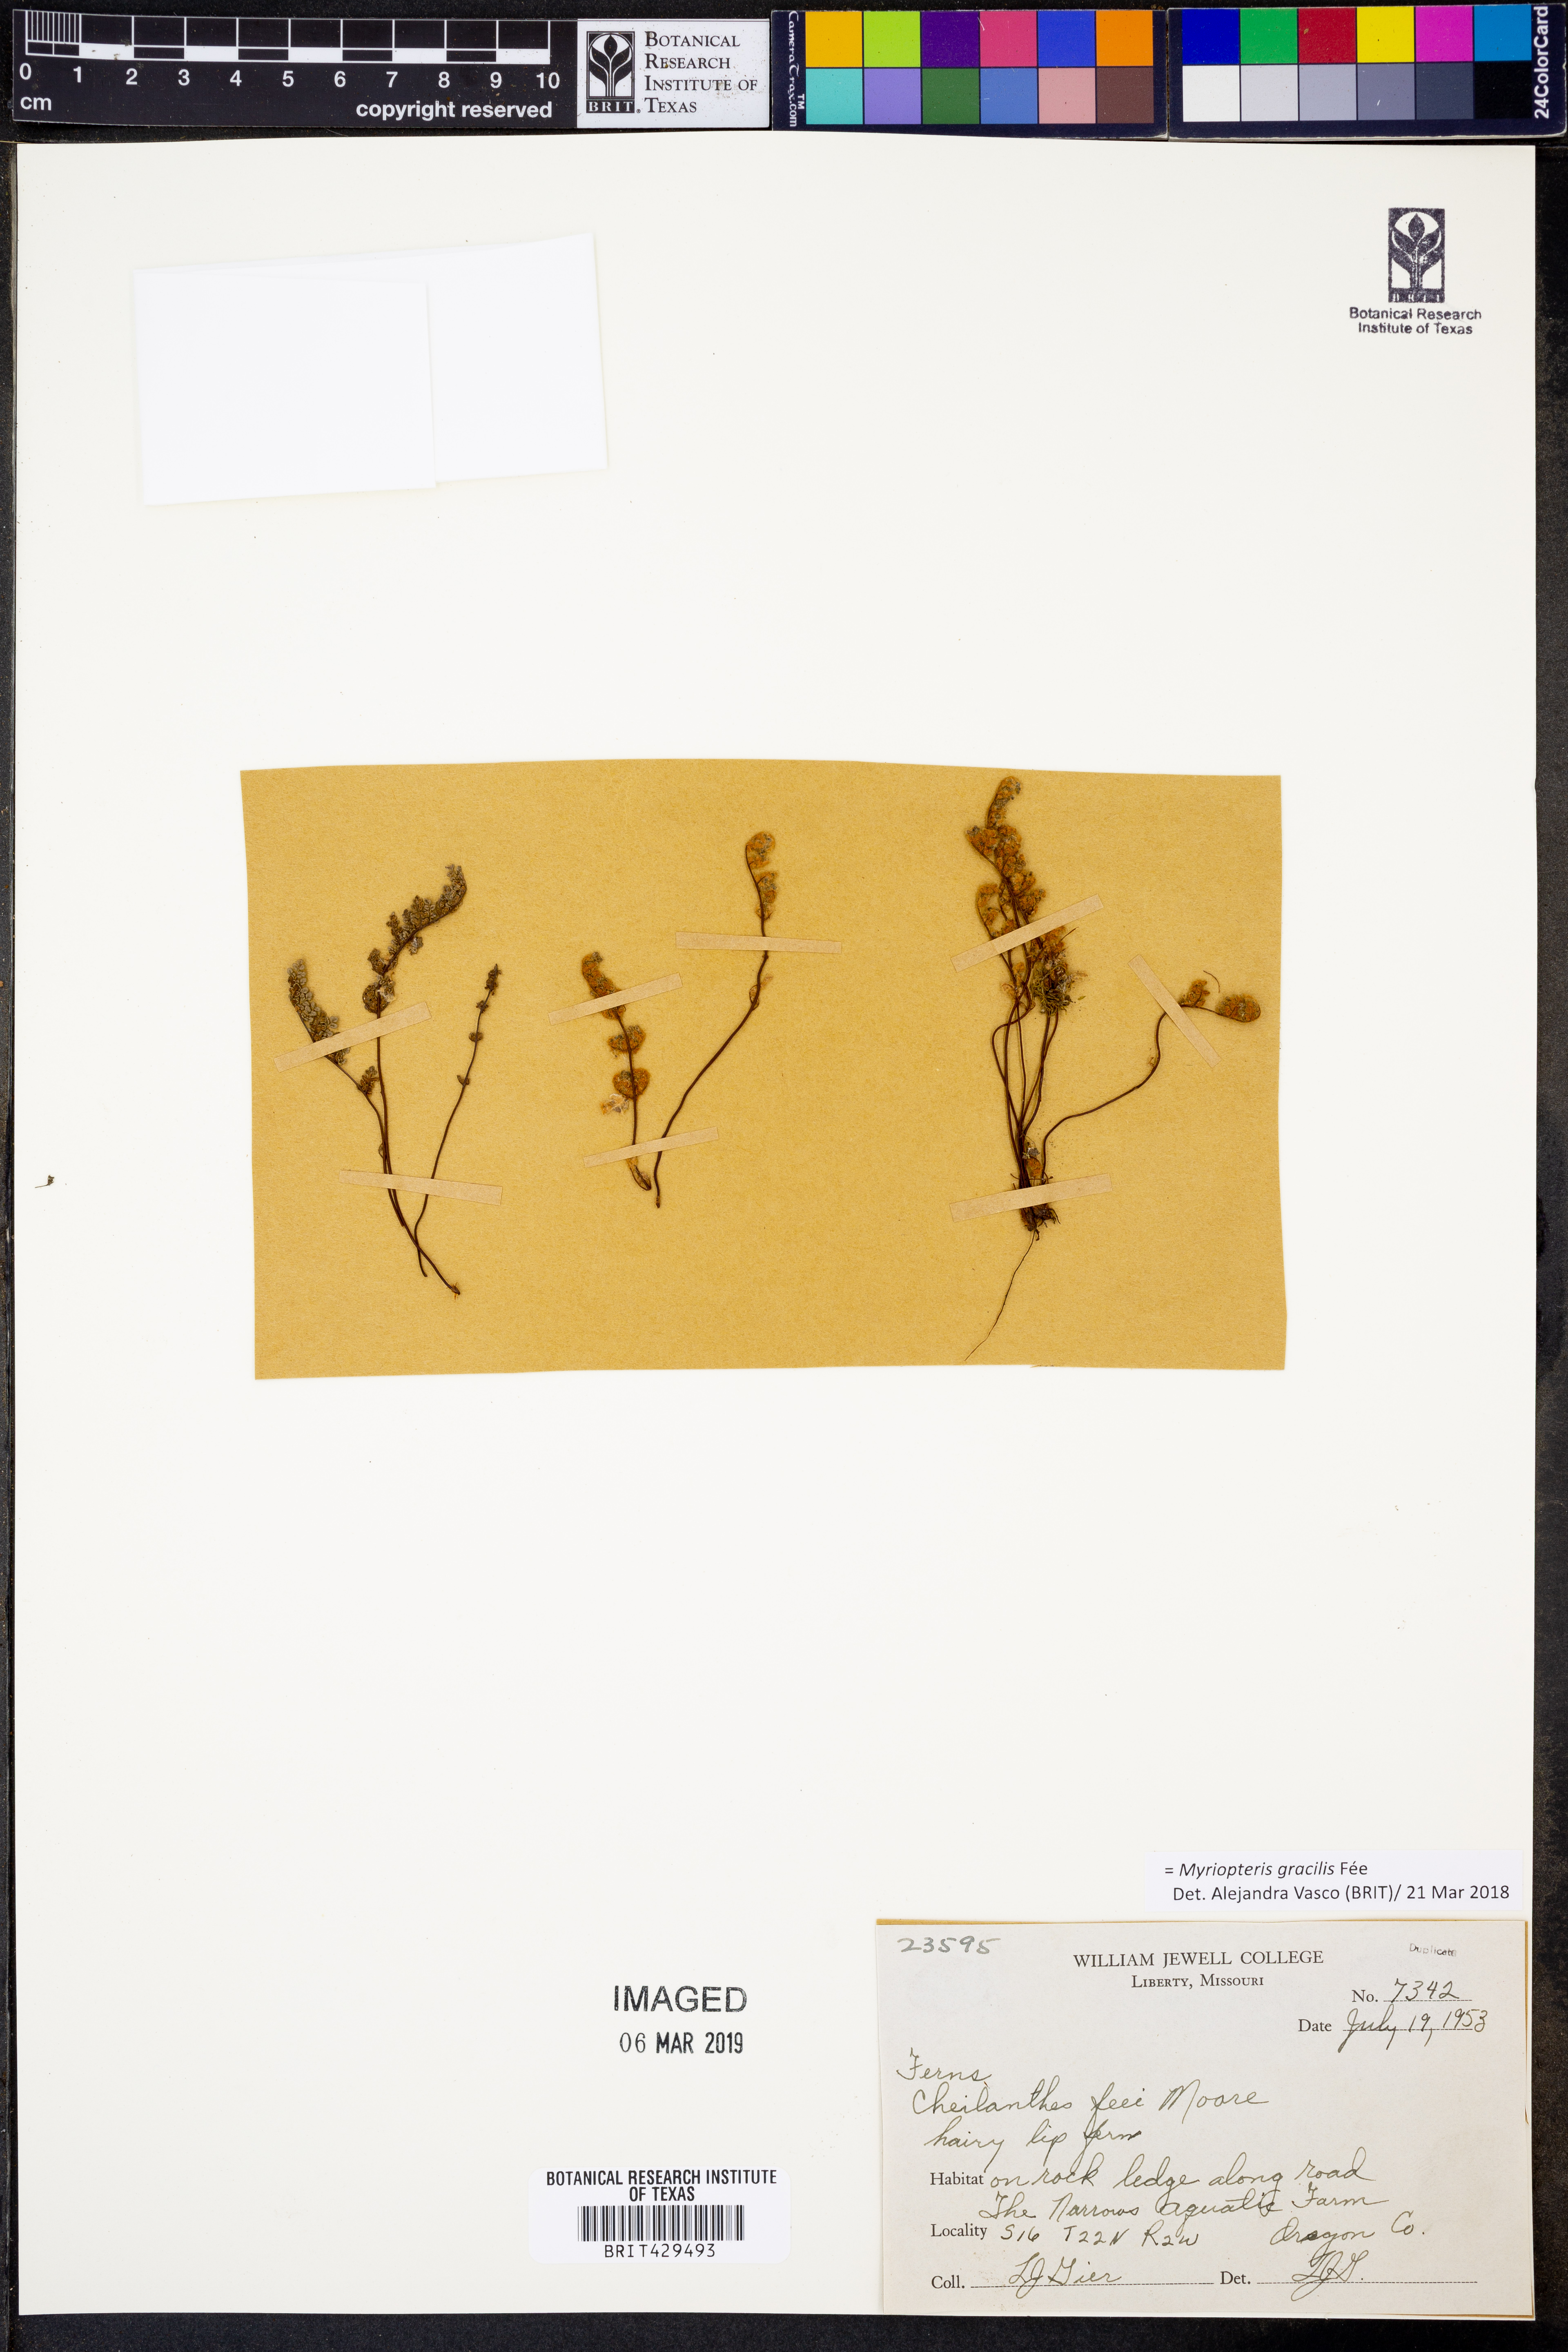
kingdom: Plantae
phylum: Tracheophyta
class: Polypodiopsida
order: Polypodiales
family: Pteridaceae
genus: Myriopteris
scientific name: Myriopteris gracilis
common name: Fee's lip fern
